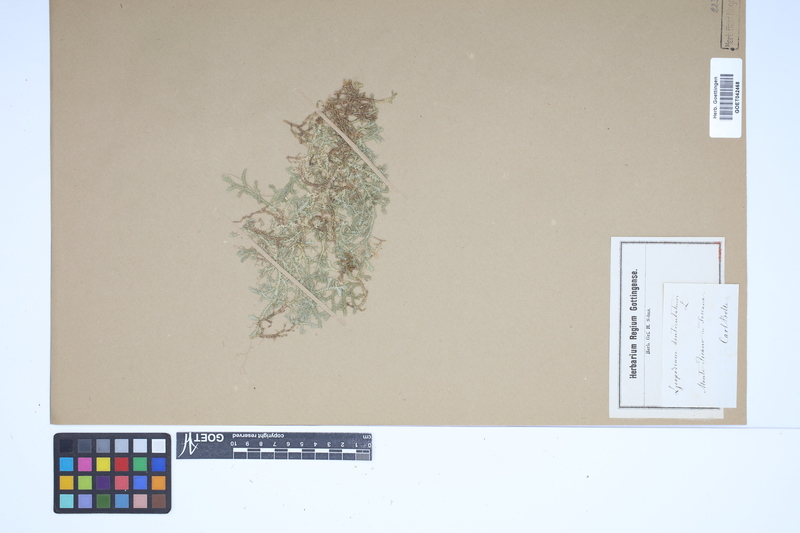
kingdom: Plantae
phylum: Tracheophyta
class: Lycopodiopsida
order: Selaginellales
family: Selaginellaceae
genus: Selaginella
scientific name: Selaginella helvetica
